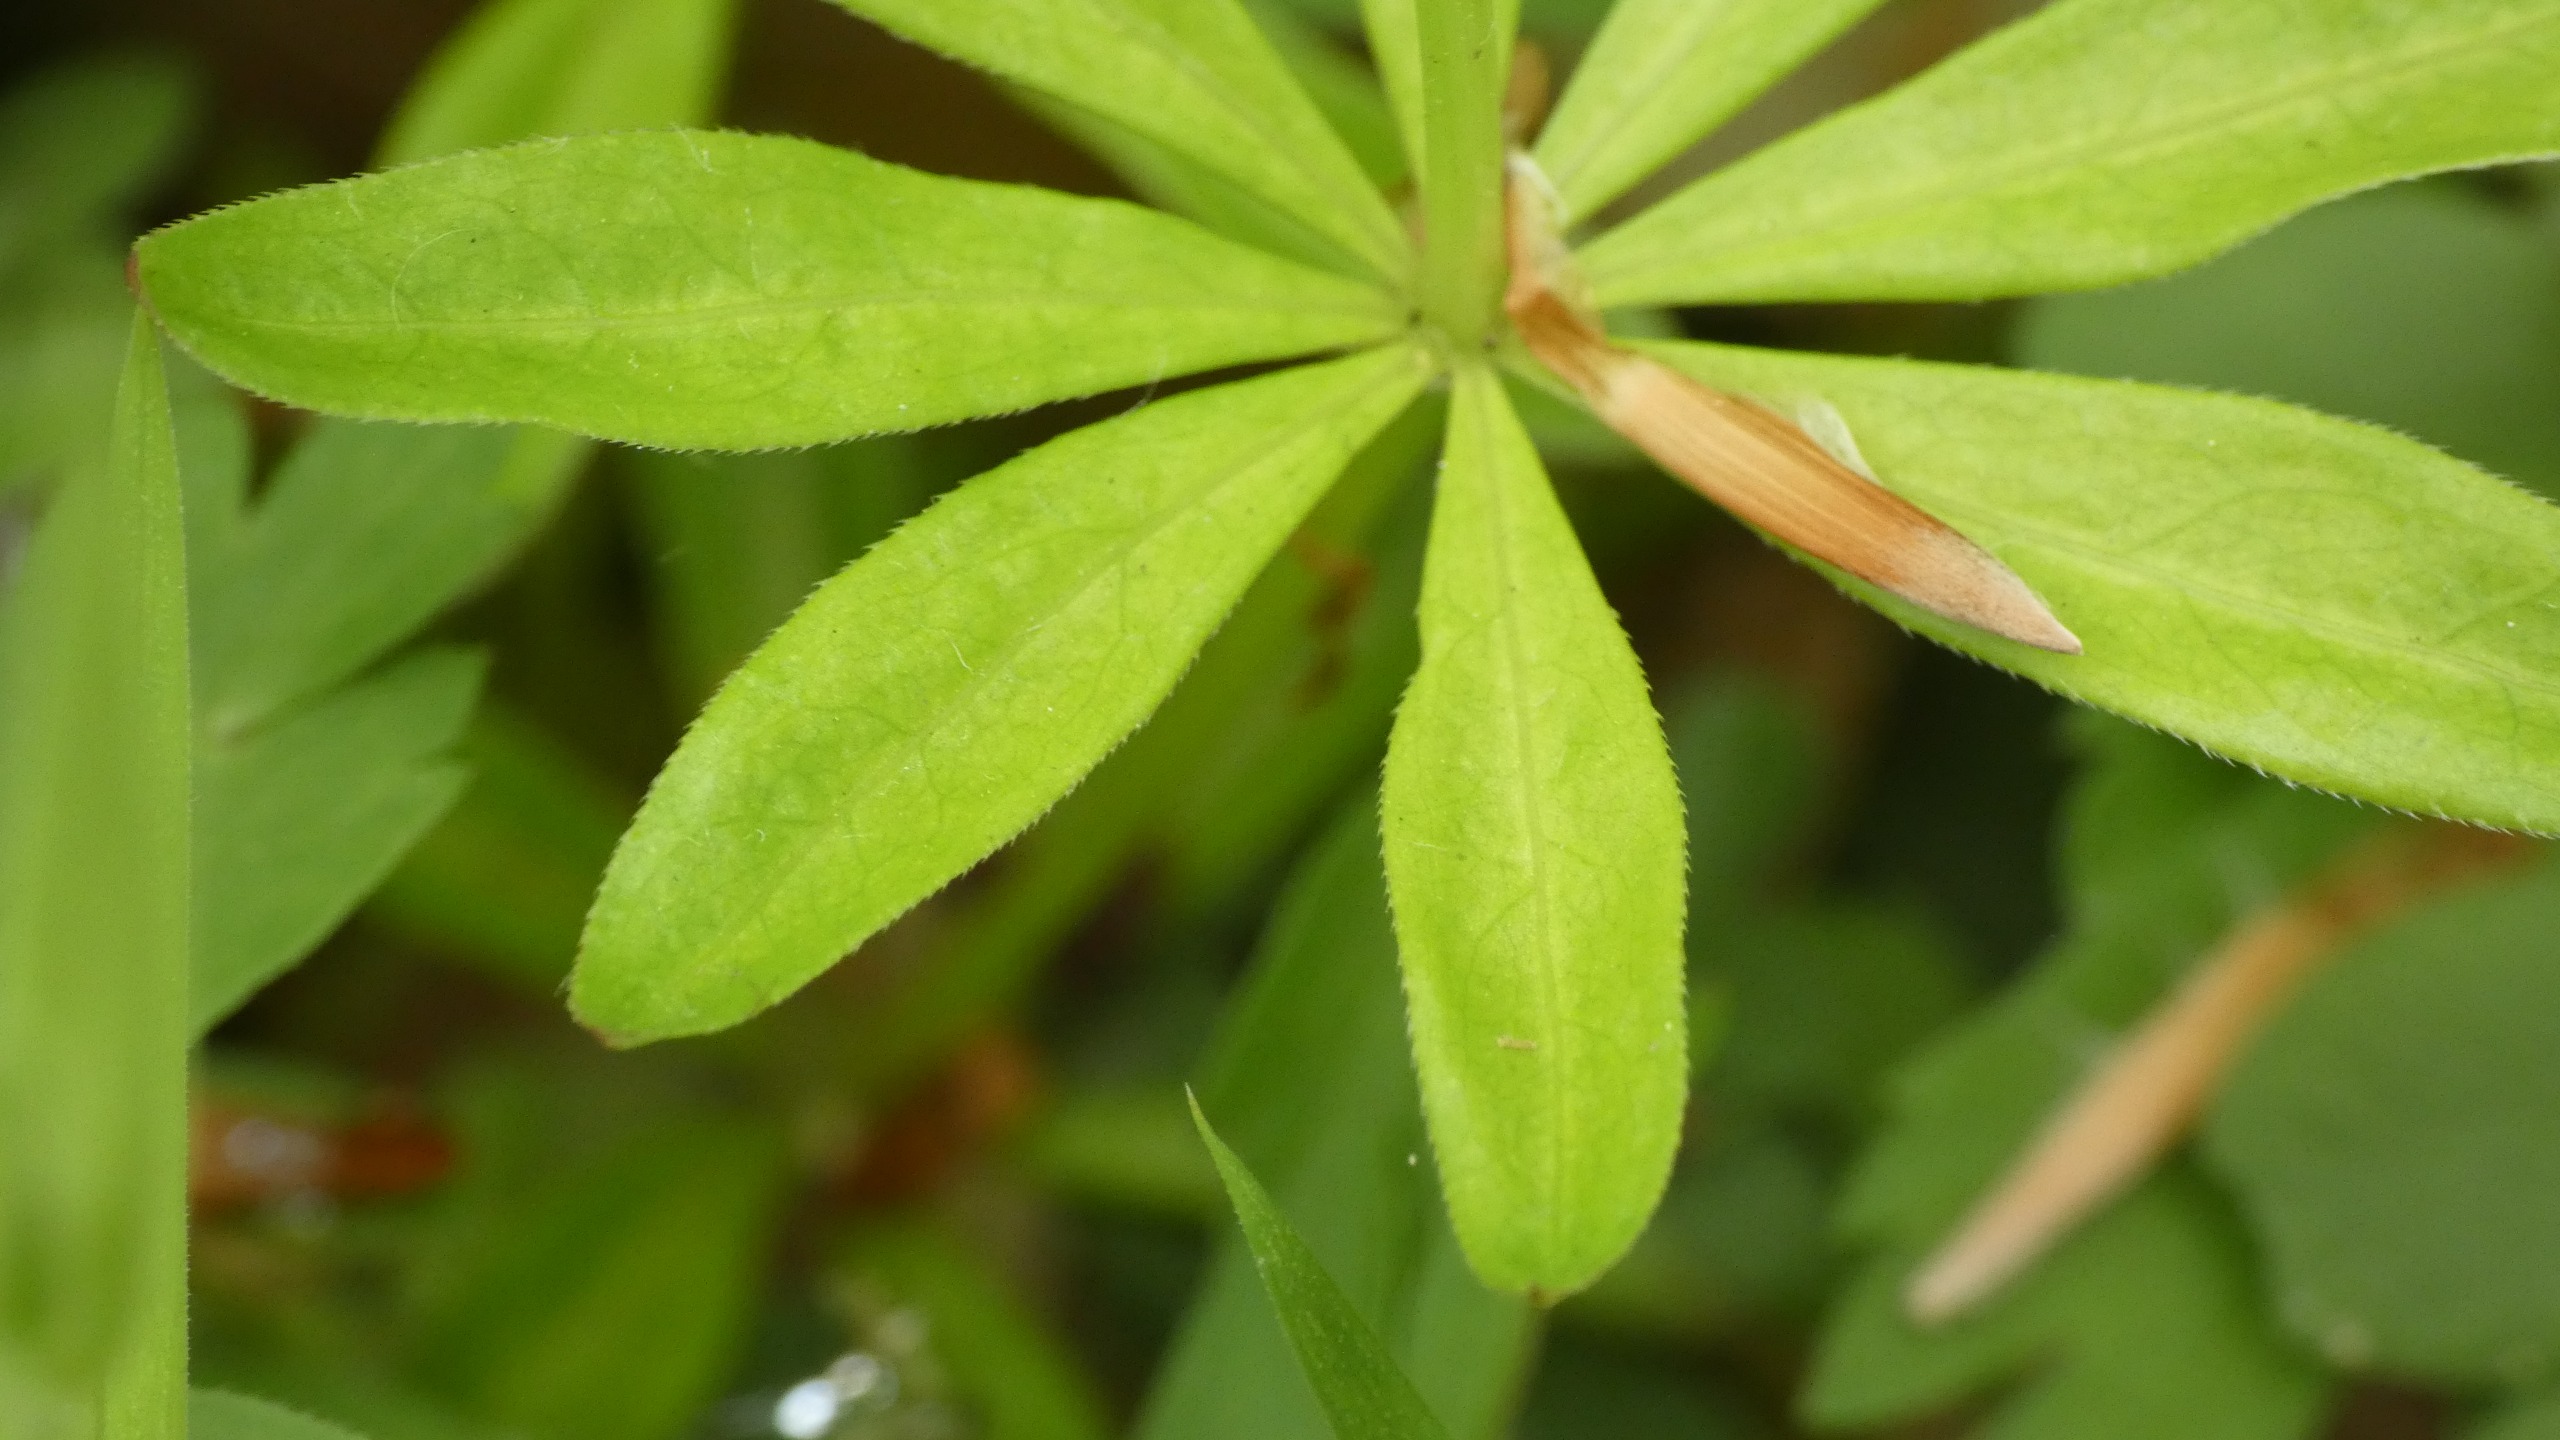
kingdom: Plantae
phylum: Tracheophyta
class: Magnoliopsida
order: Gentianales
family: Rubiaceae
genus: Galium
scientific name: Galium odoratum
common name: Skovmærke
